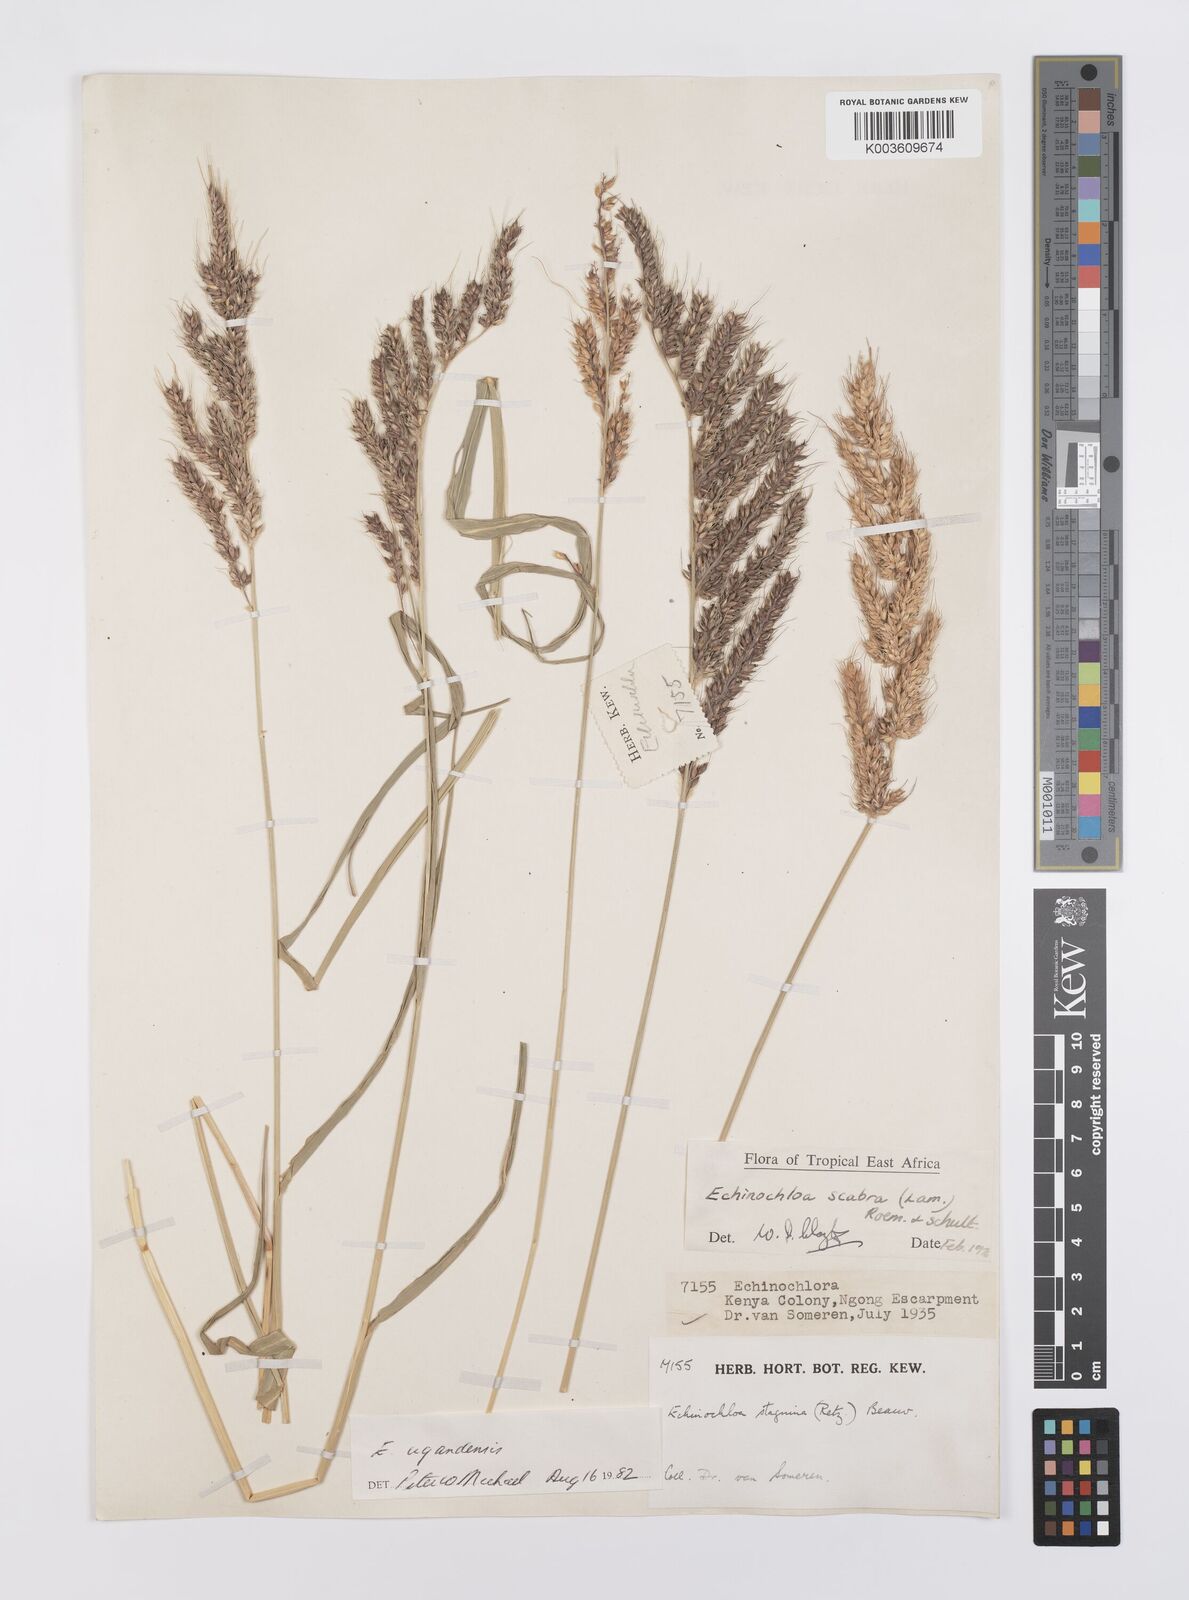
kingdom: Plantae
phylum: Tracheophyta
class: Liliopsida
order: Poales
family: Poaceae
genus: Echinochloa
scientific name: Echinochloa stagnina
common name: Burgu grass
